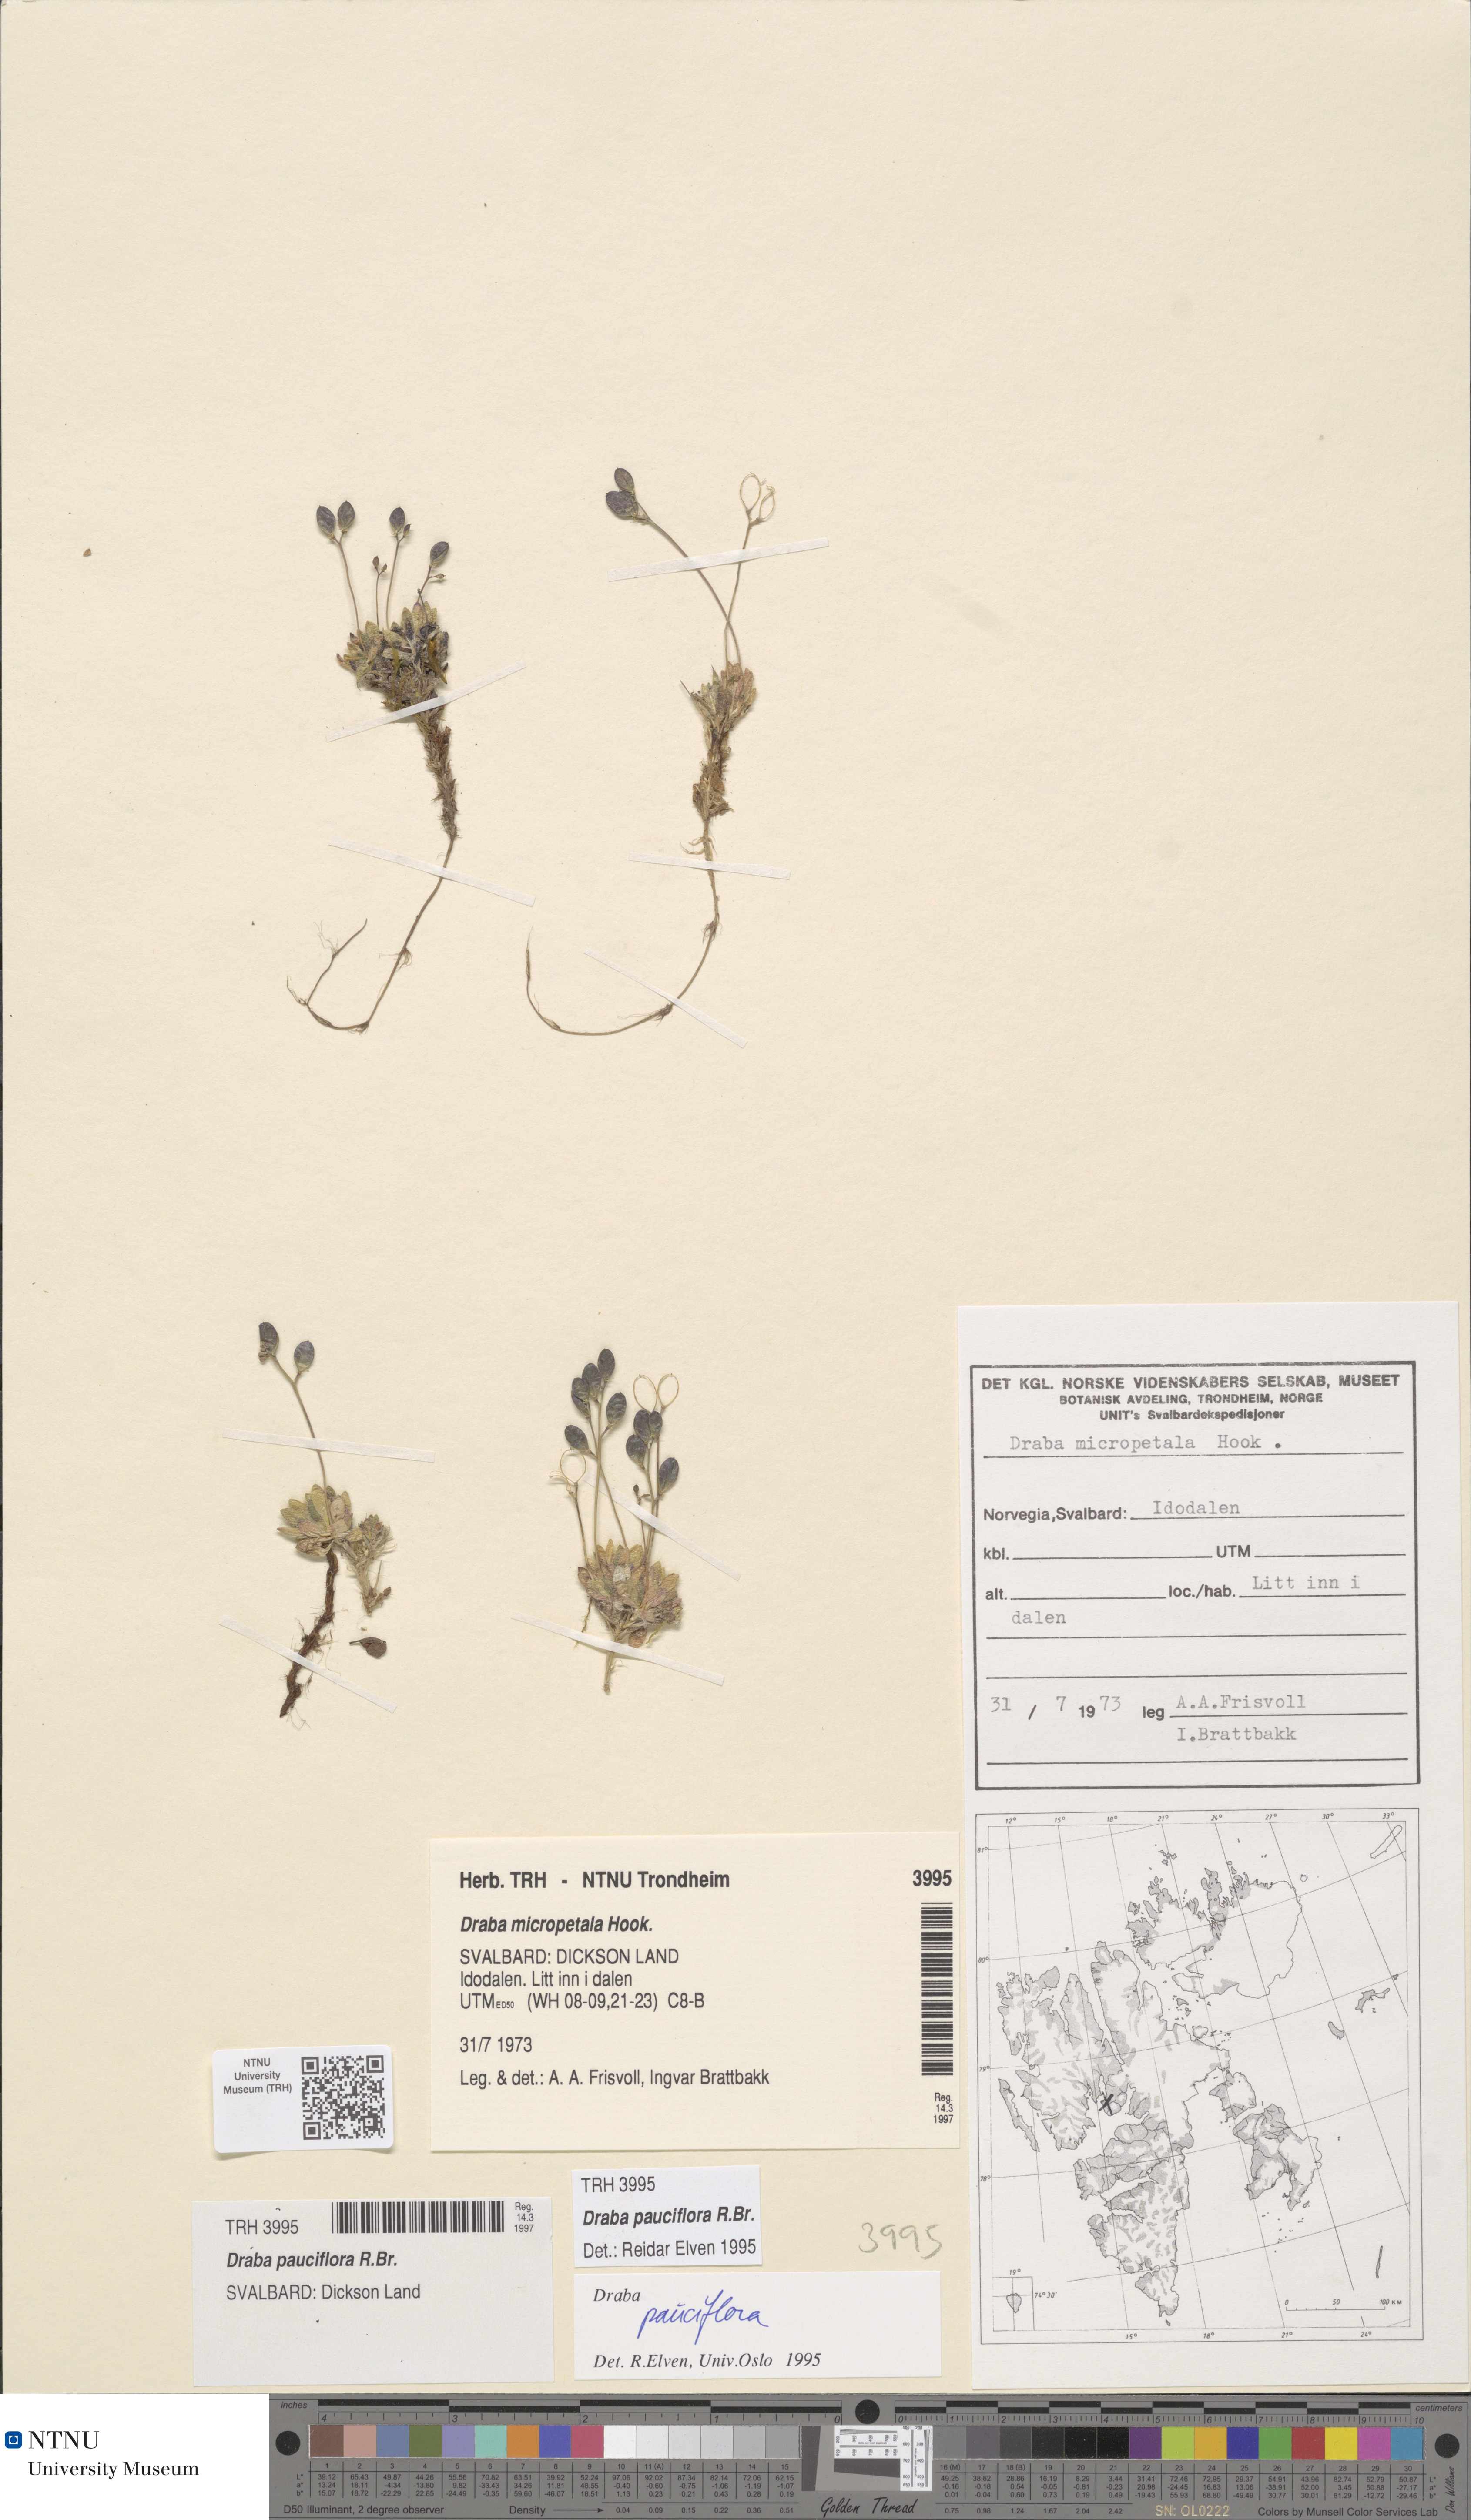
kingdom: Plantae
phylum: Tracheophyta
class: Magnoliopsida
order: Brassicales
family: Brassicaceae
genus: Draba
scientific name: Draba pauciflora
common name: Few-flowered draba
